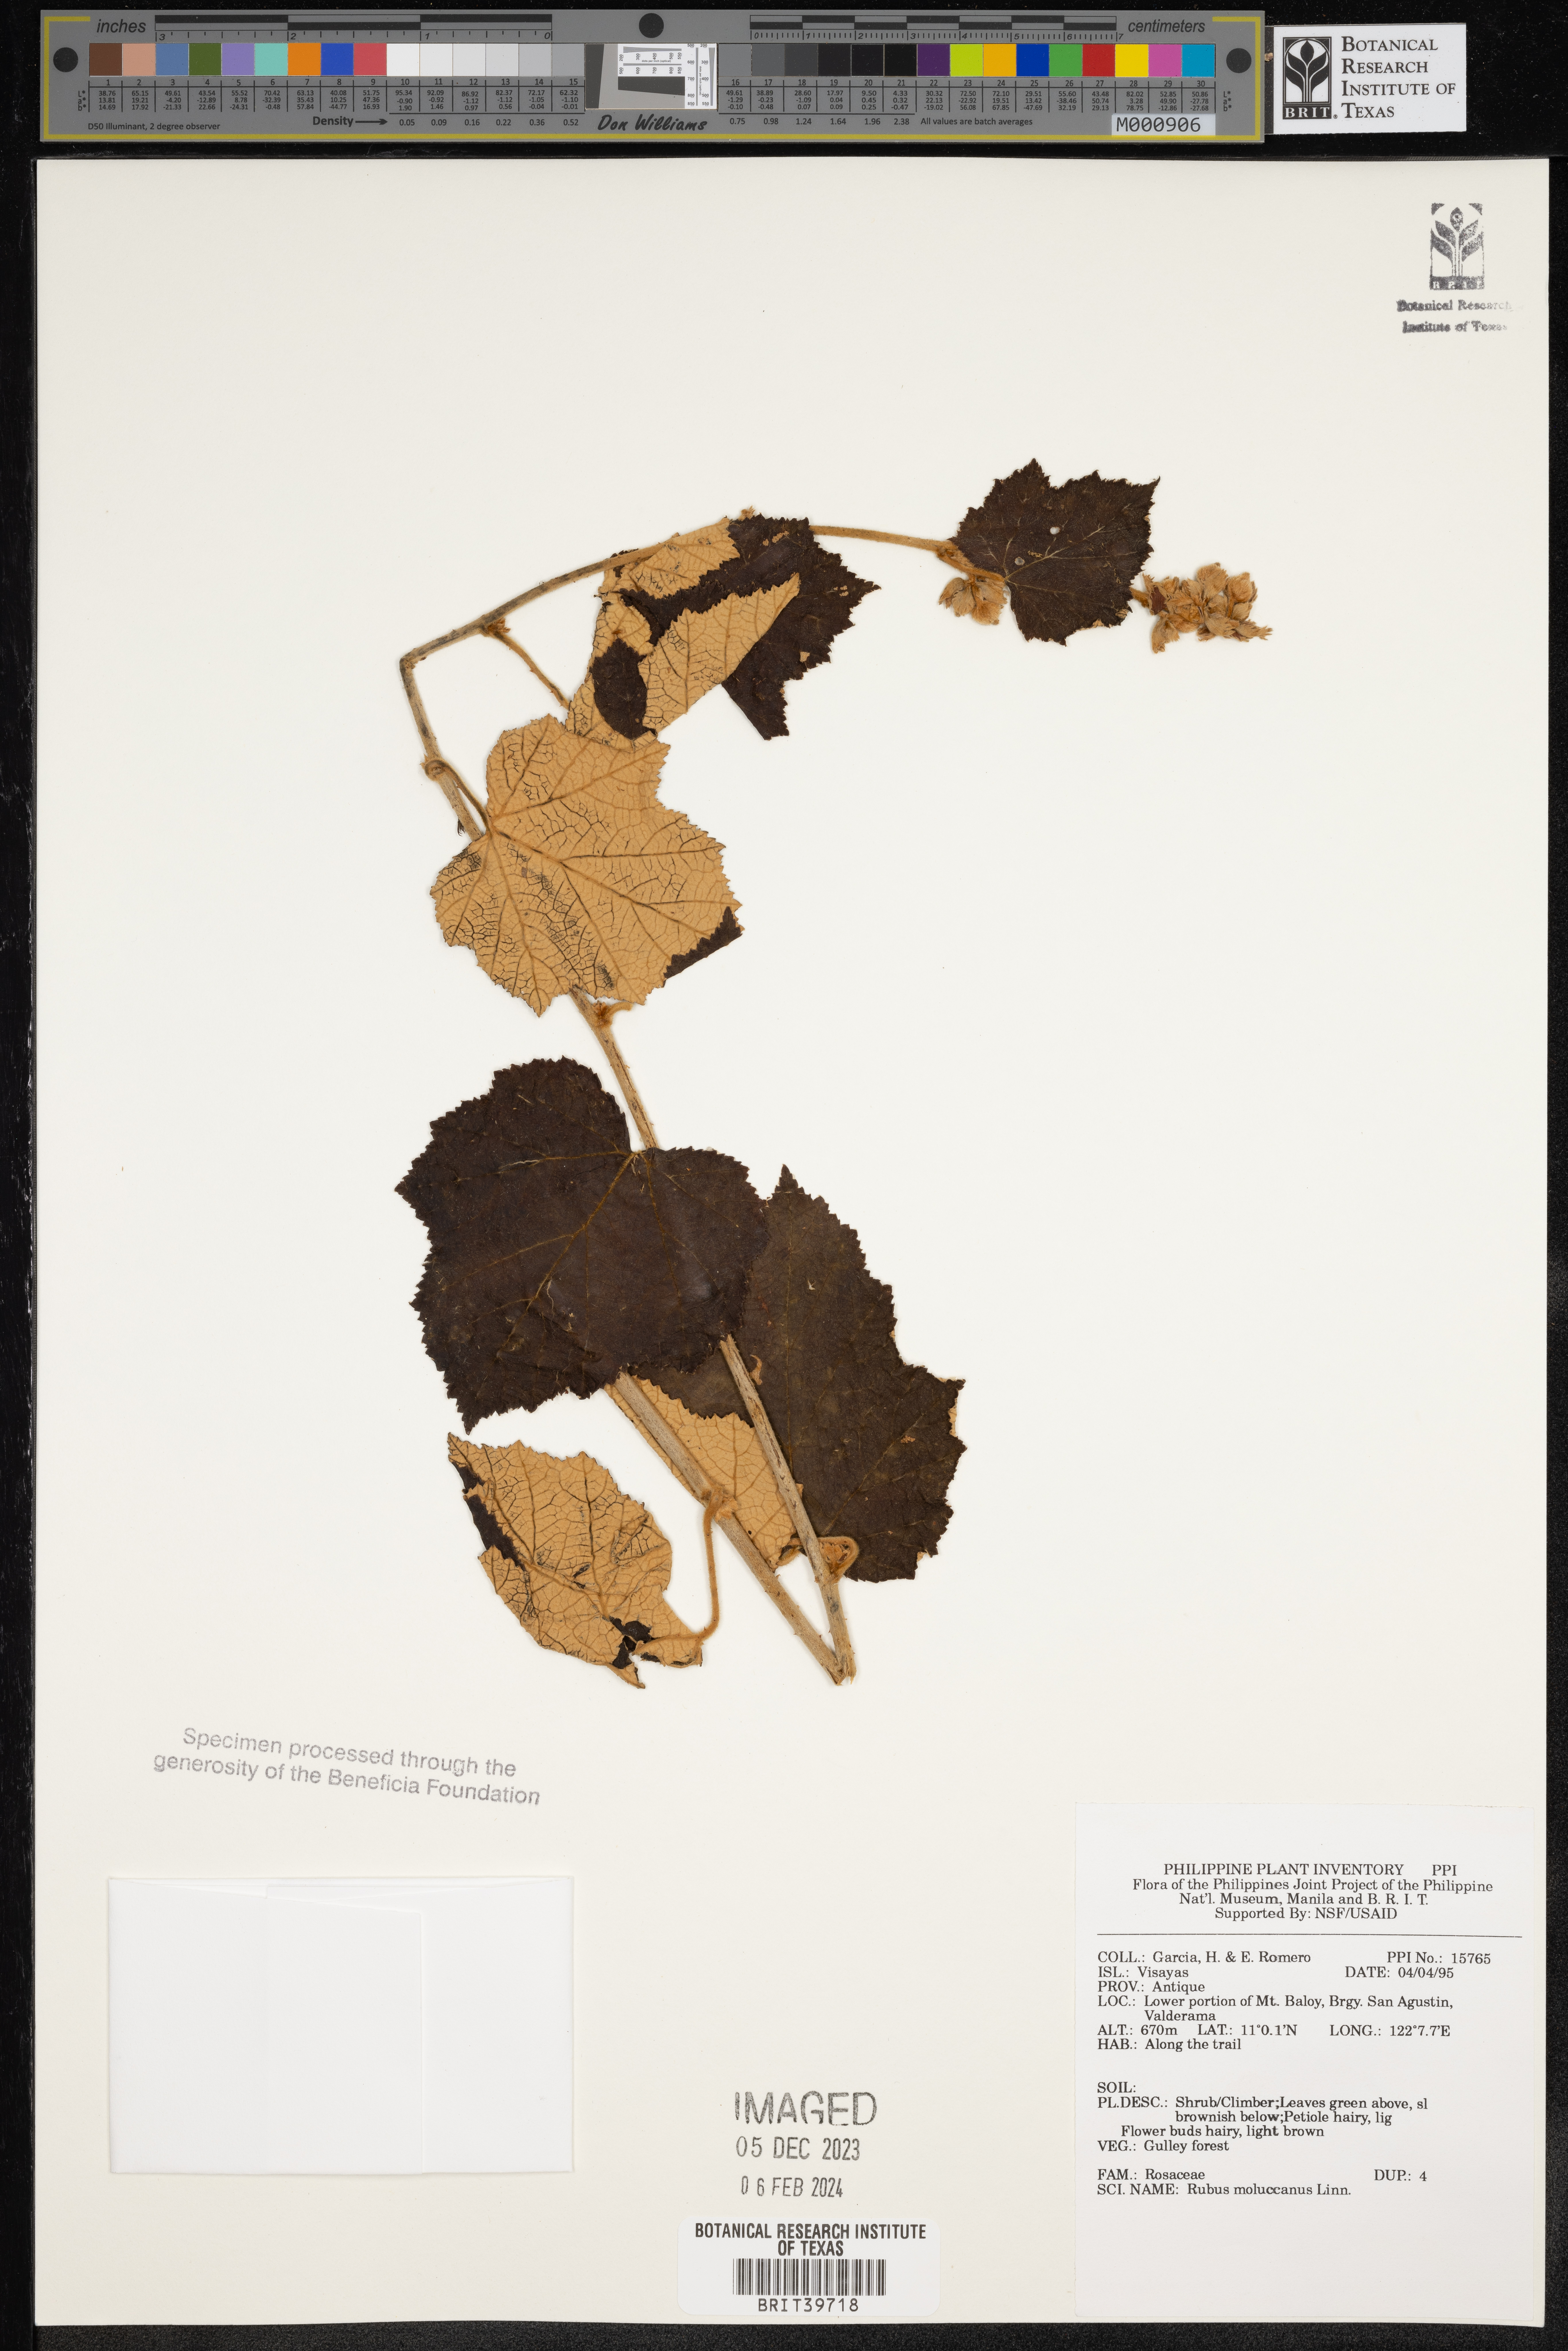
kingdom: Plantae
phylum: Tracheophyta
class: Magnoliopsida
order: Rosales
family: Rosaceae
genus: Rubus
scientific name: Rubus moluccanus
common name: Wild raspberry
